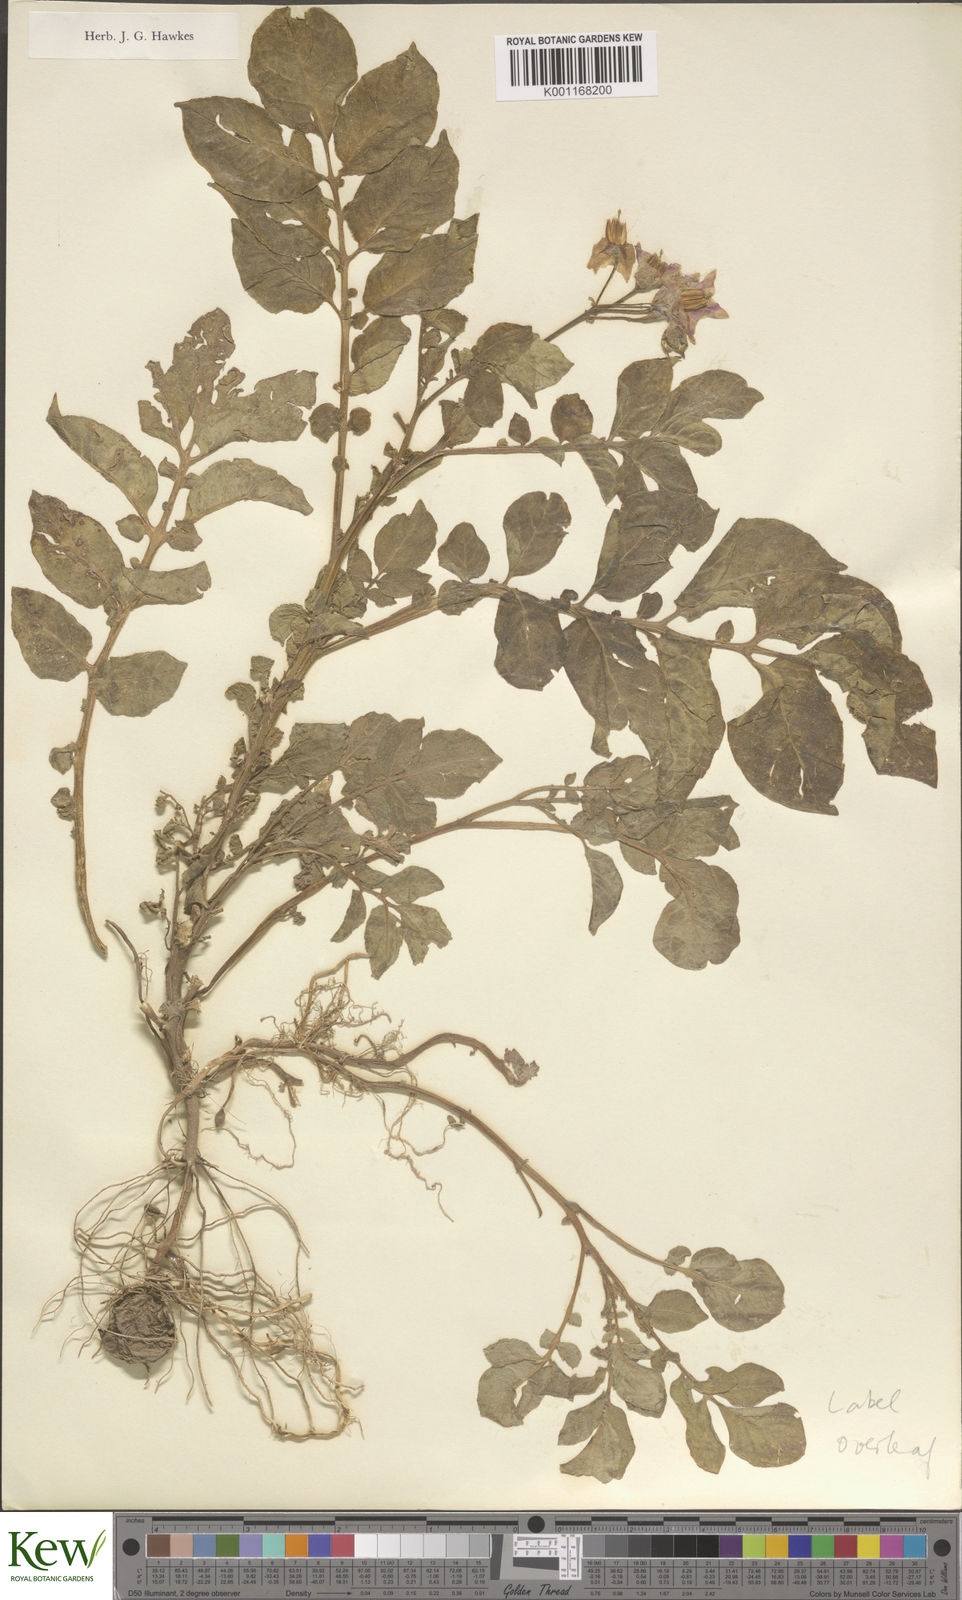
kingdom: Plantae
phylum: Tracheophyta
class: Magnoliopsida
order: Solanales
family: Solanaceae
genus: Solanum
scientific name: Solanum tuberosum
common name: Potato
